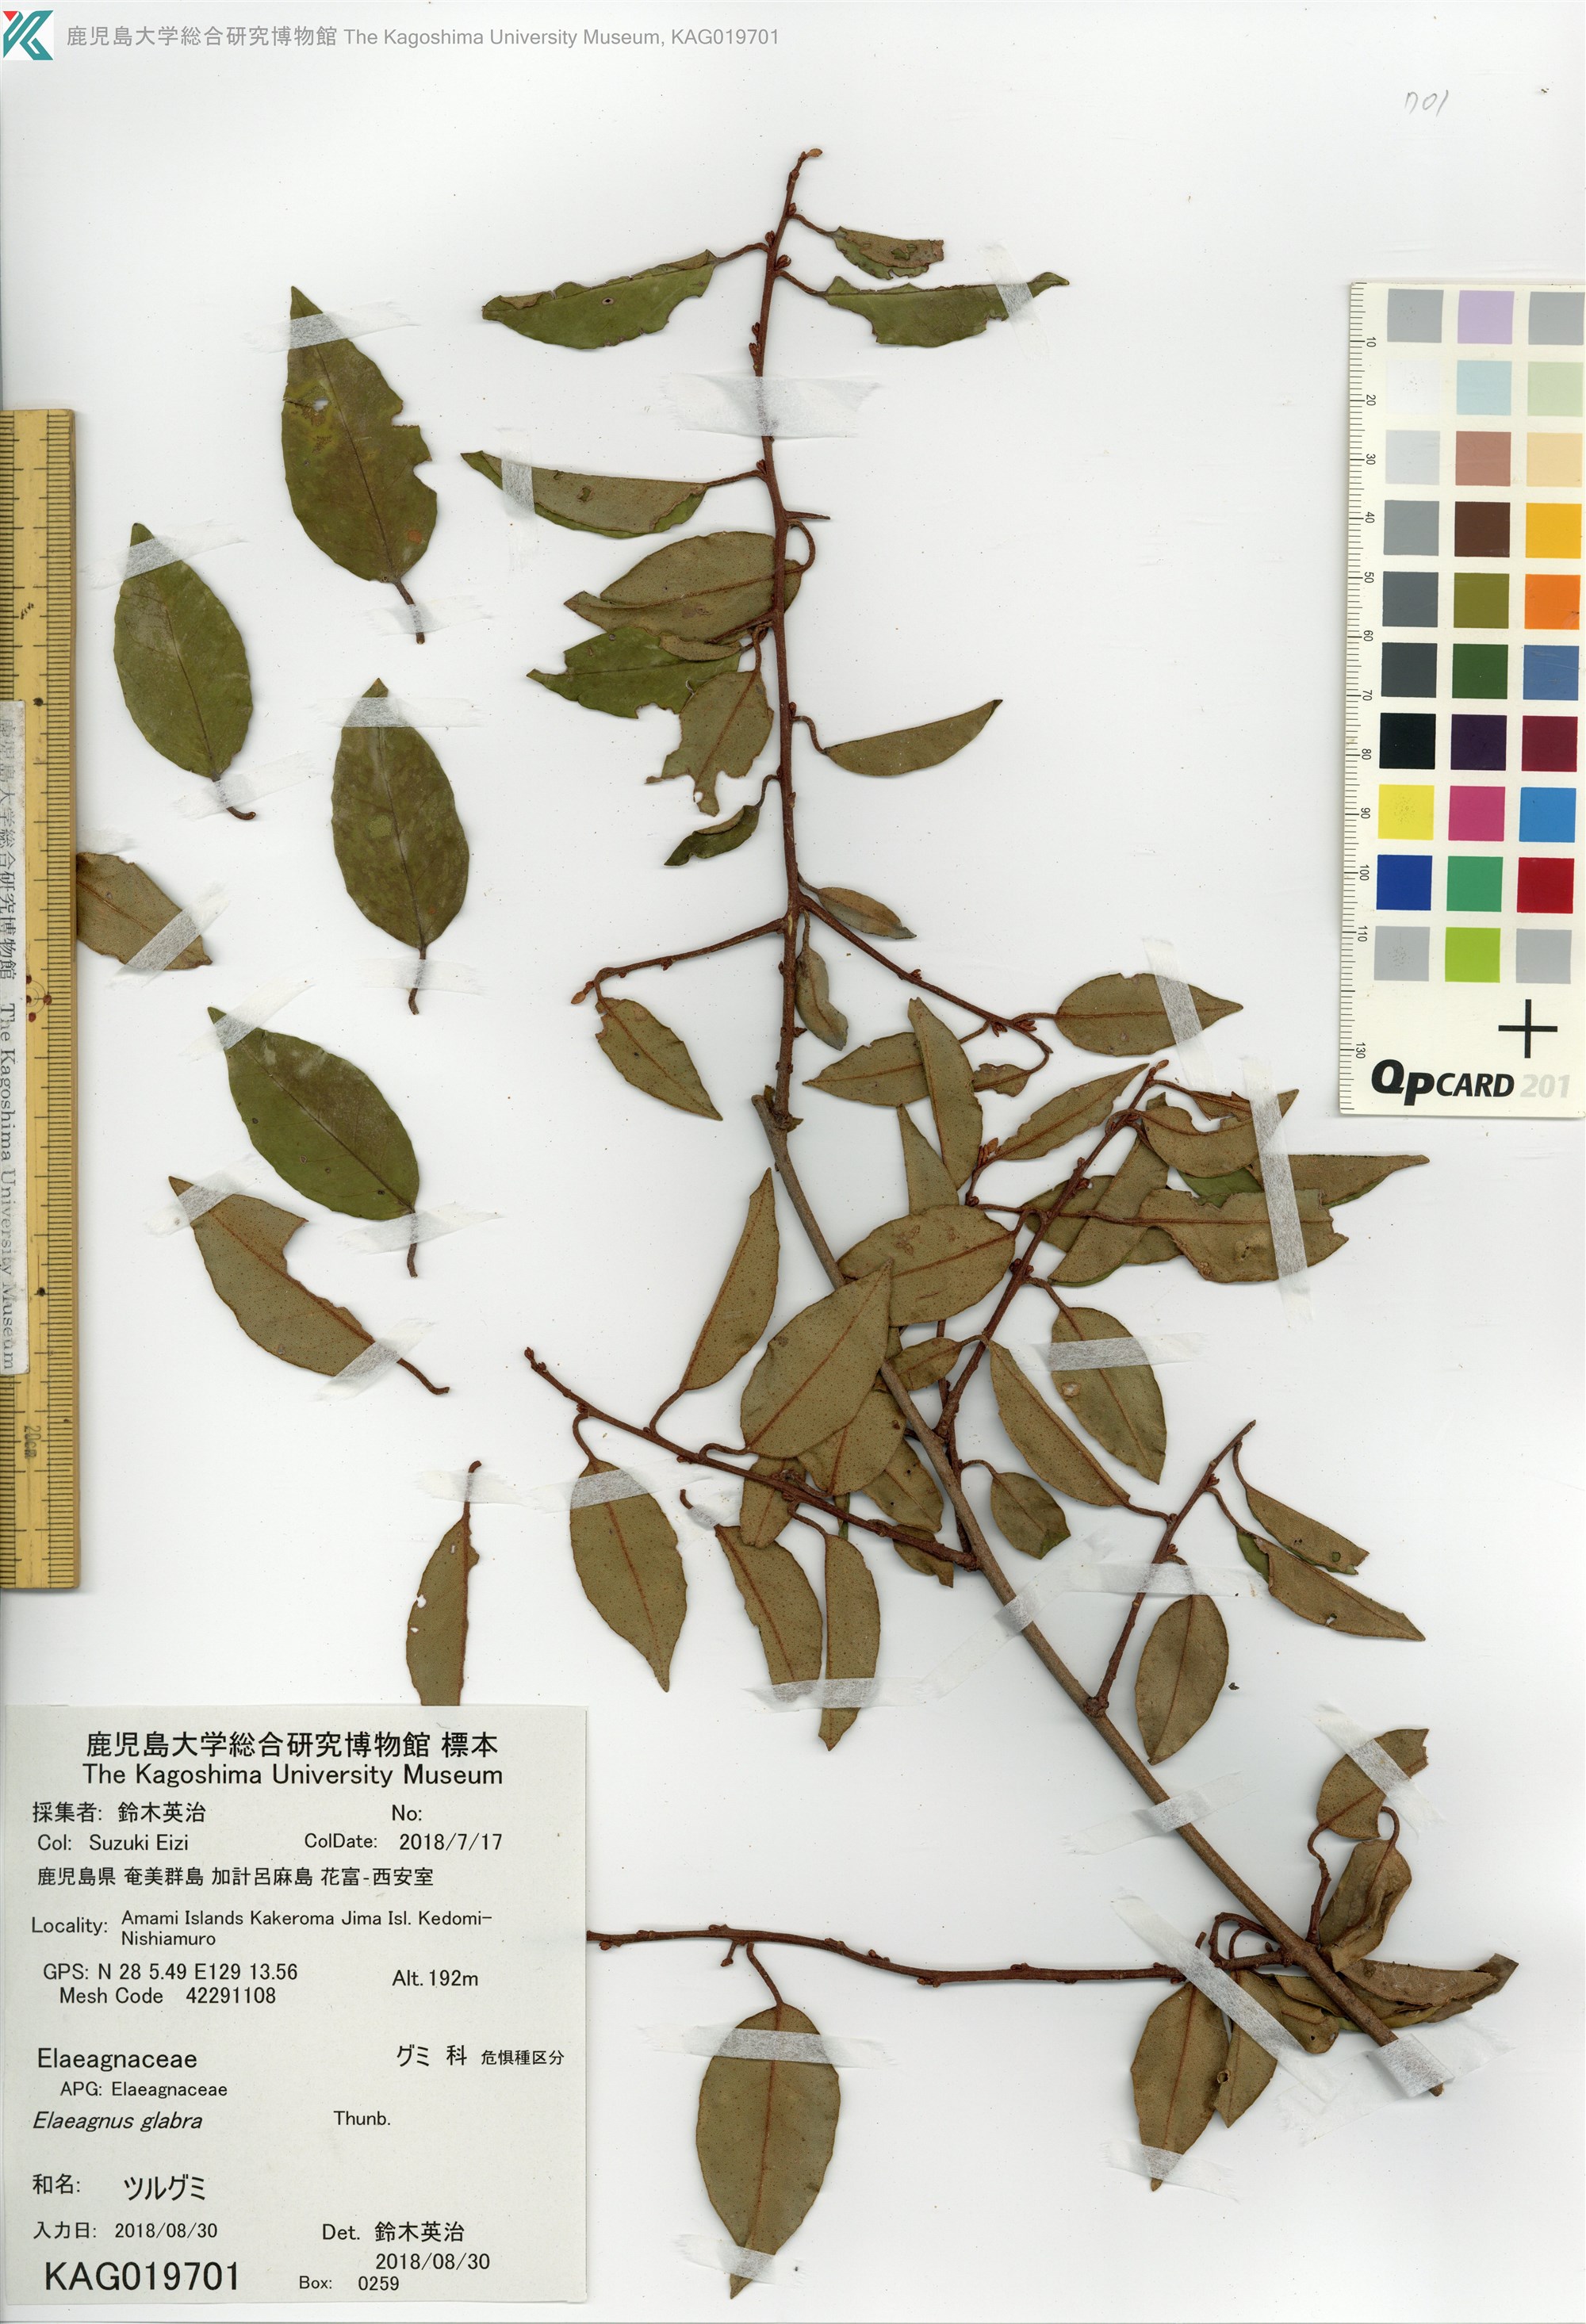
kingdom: Plantae
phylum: Tracheophyta
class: Magnoliopsida
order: Rosales
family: Elaeagnaceae
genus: Elaeagnus
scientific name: Elaeagnus glabra
